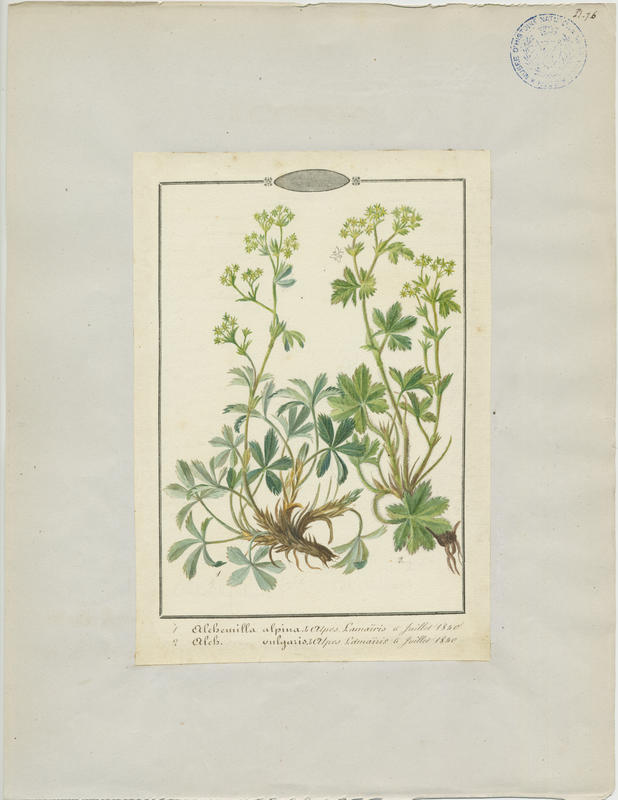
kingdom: Plantae
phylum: Tracheophyta
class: Magnoliopsida
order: Rosales
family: Rosaceae
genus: Alchemilla
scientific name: Alchemilla vulgaris
